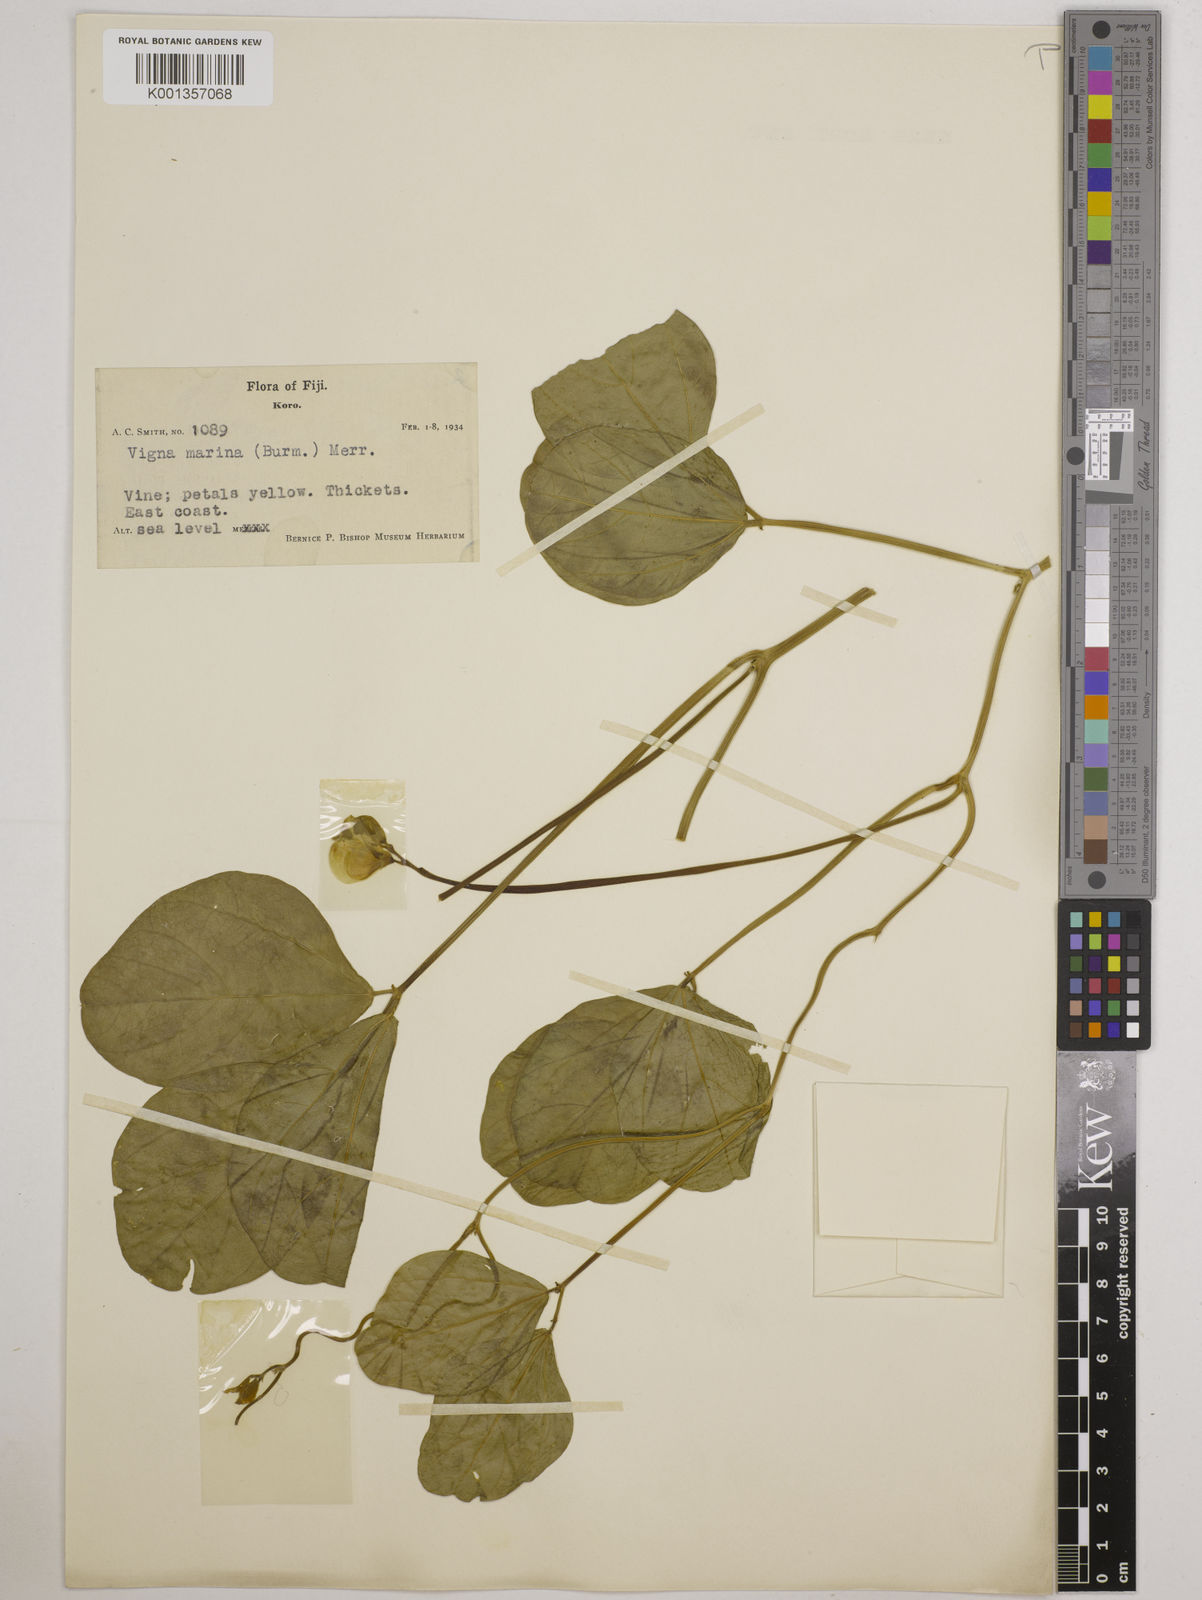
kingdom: Plantae
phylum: Tracheophyta
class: Magnoliopsida
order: Fabales
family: Fabaceae
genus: Vigna
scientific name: Vigna marina
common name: Dune-bean
